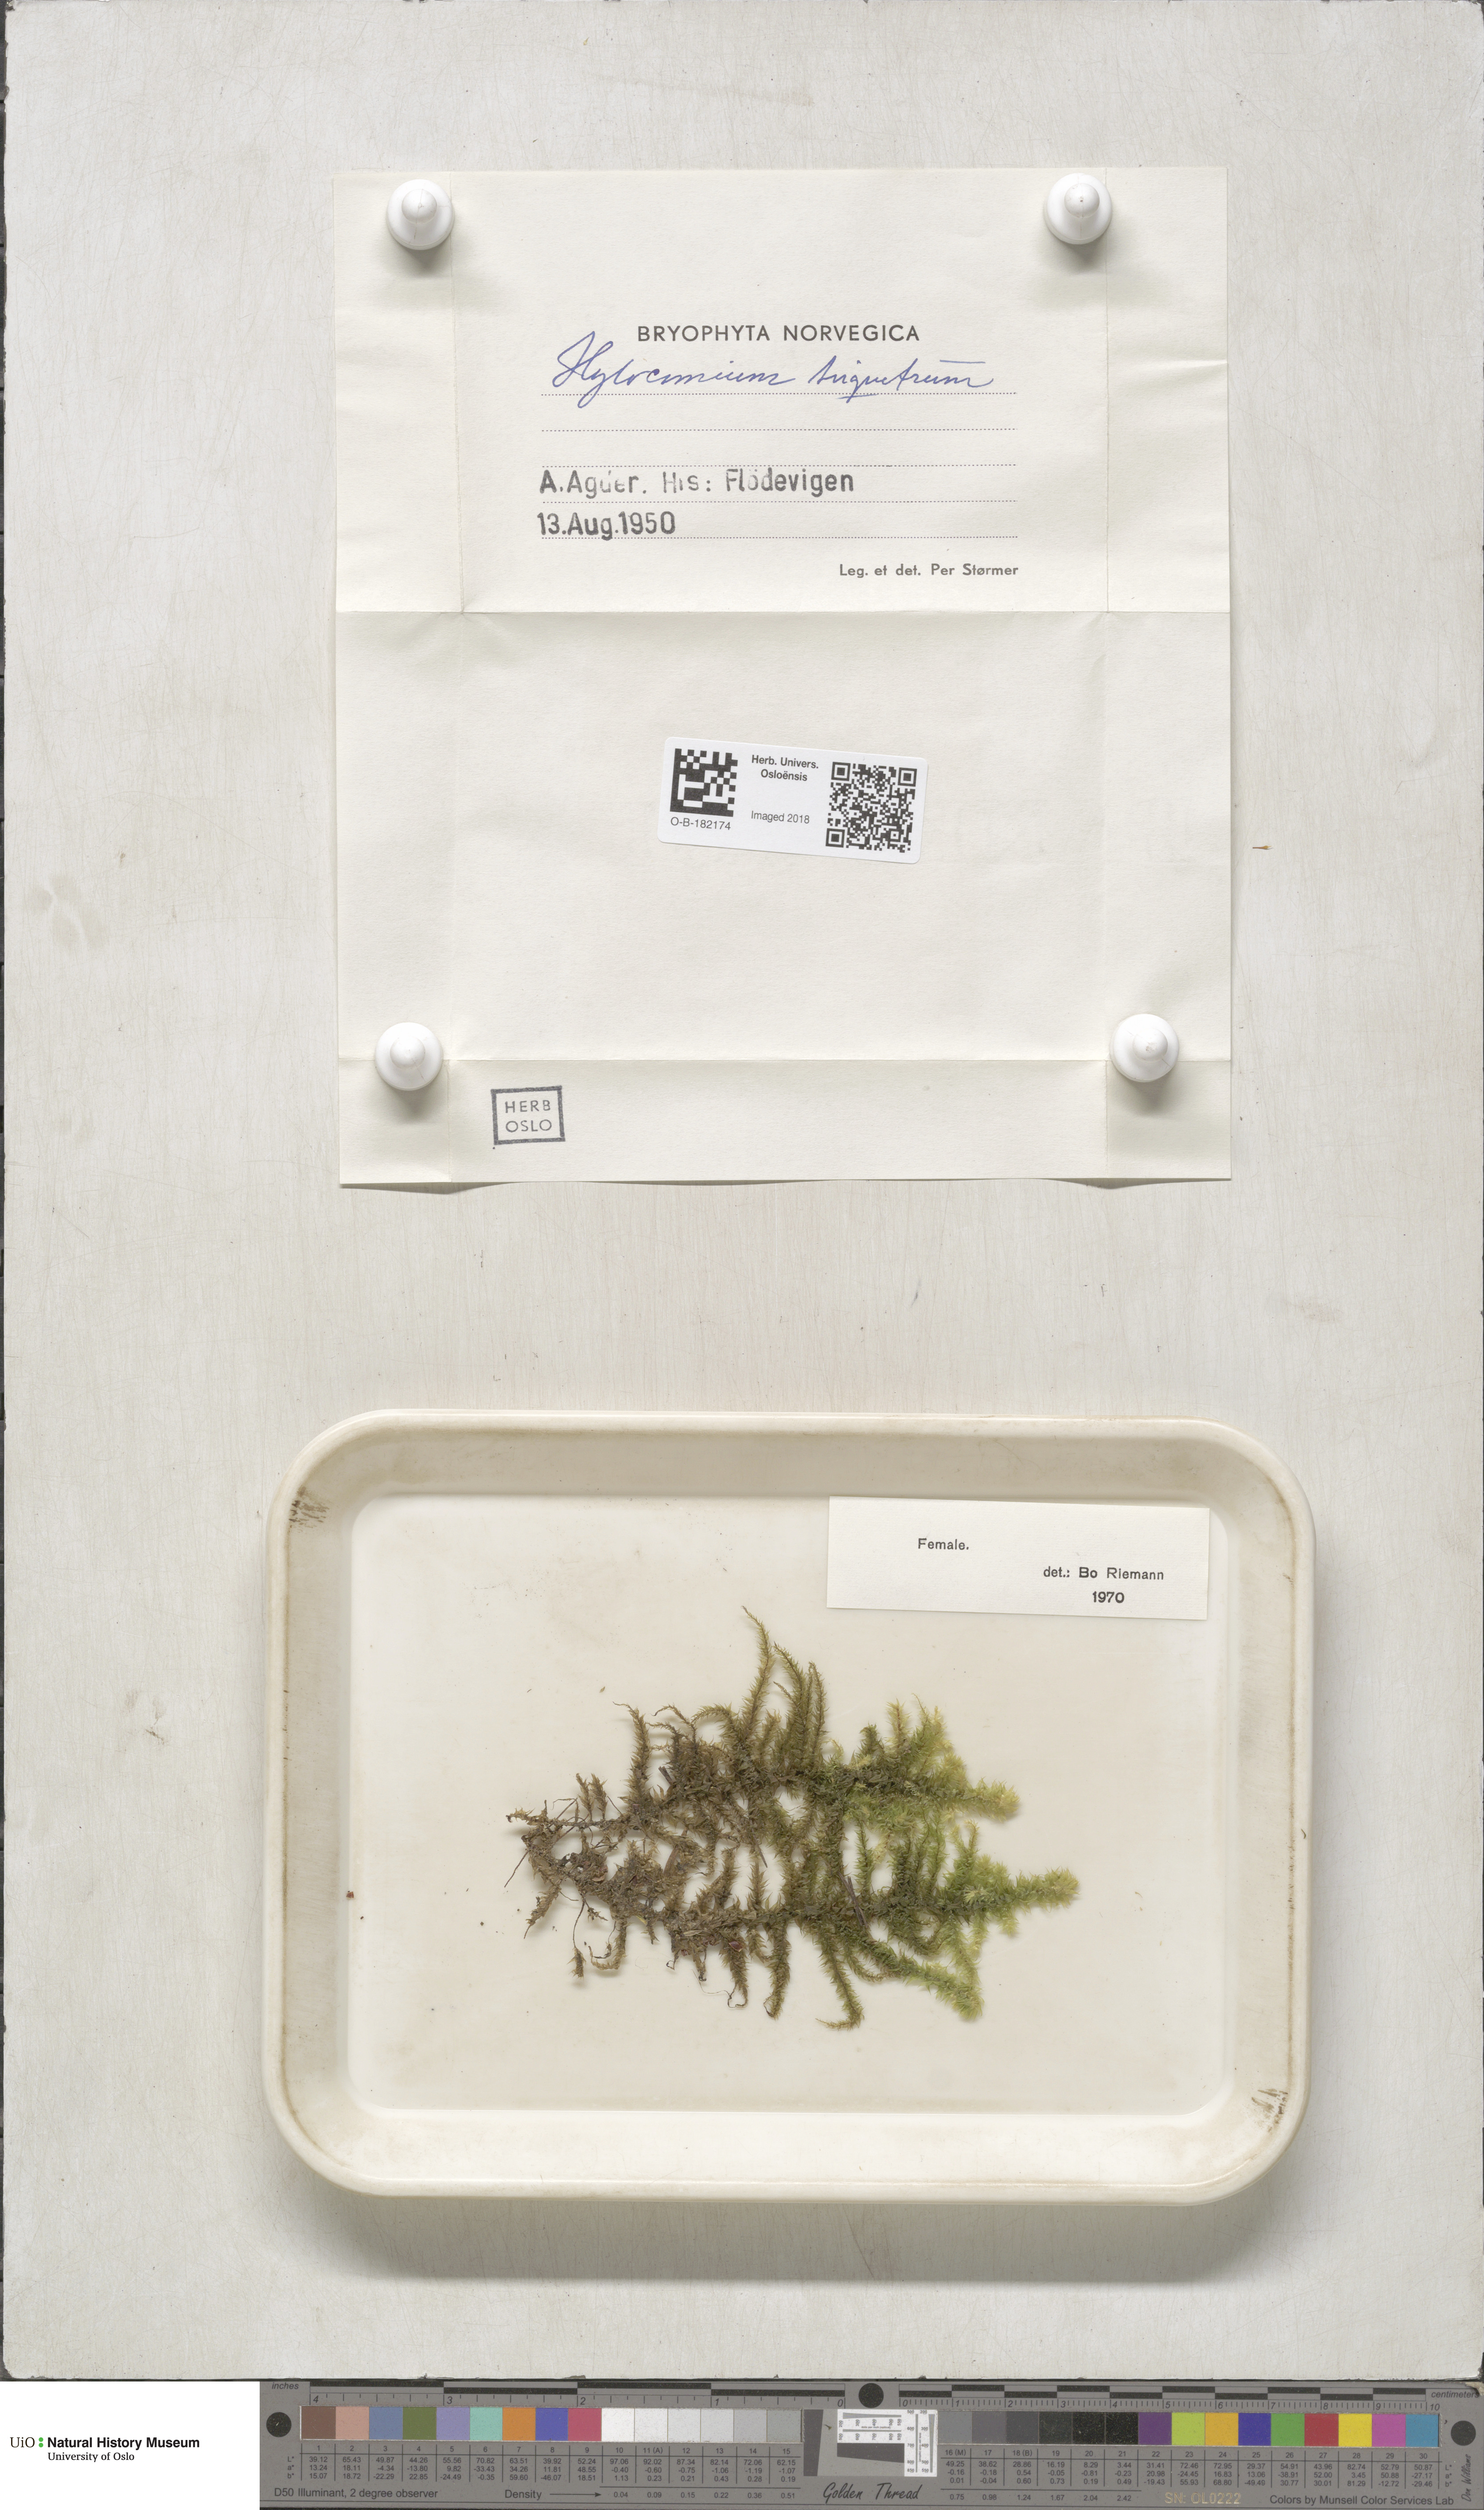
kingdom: Plantae
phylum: Bryophyta
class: Bryopsida
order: Hypnales
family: Hylocomiaceae
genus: Hylocomiadelphus
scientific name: Hylocomiadelphus triquetrus
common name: Rough goose neck moss
